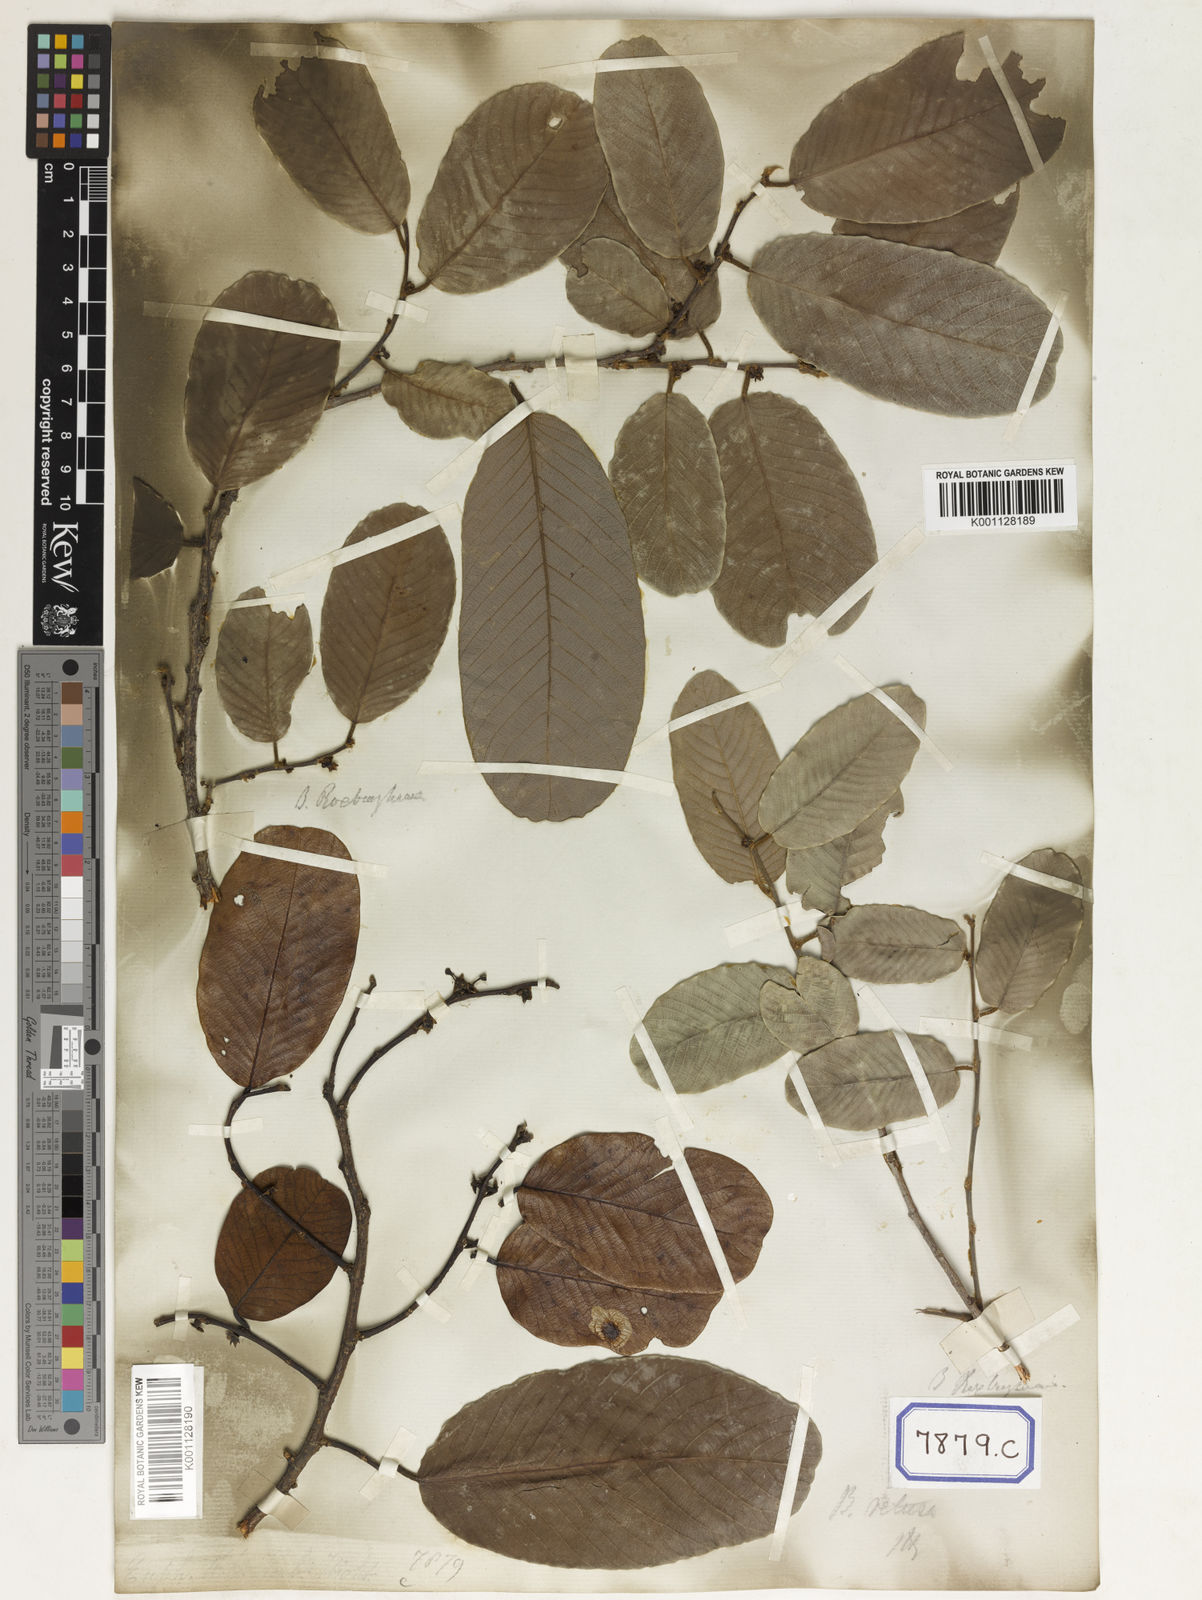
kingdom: Plantae
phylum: Tracheophyta
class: Magnoliopsida
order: Malpighiales
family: Phyllanthaceae
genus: Bridelia
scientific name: Bridelia montana
